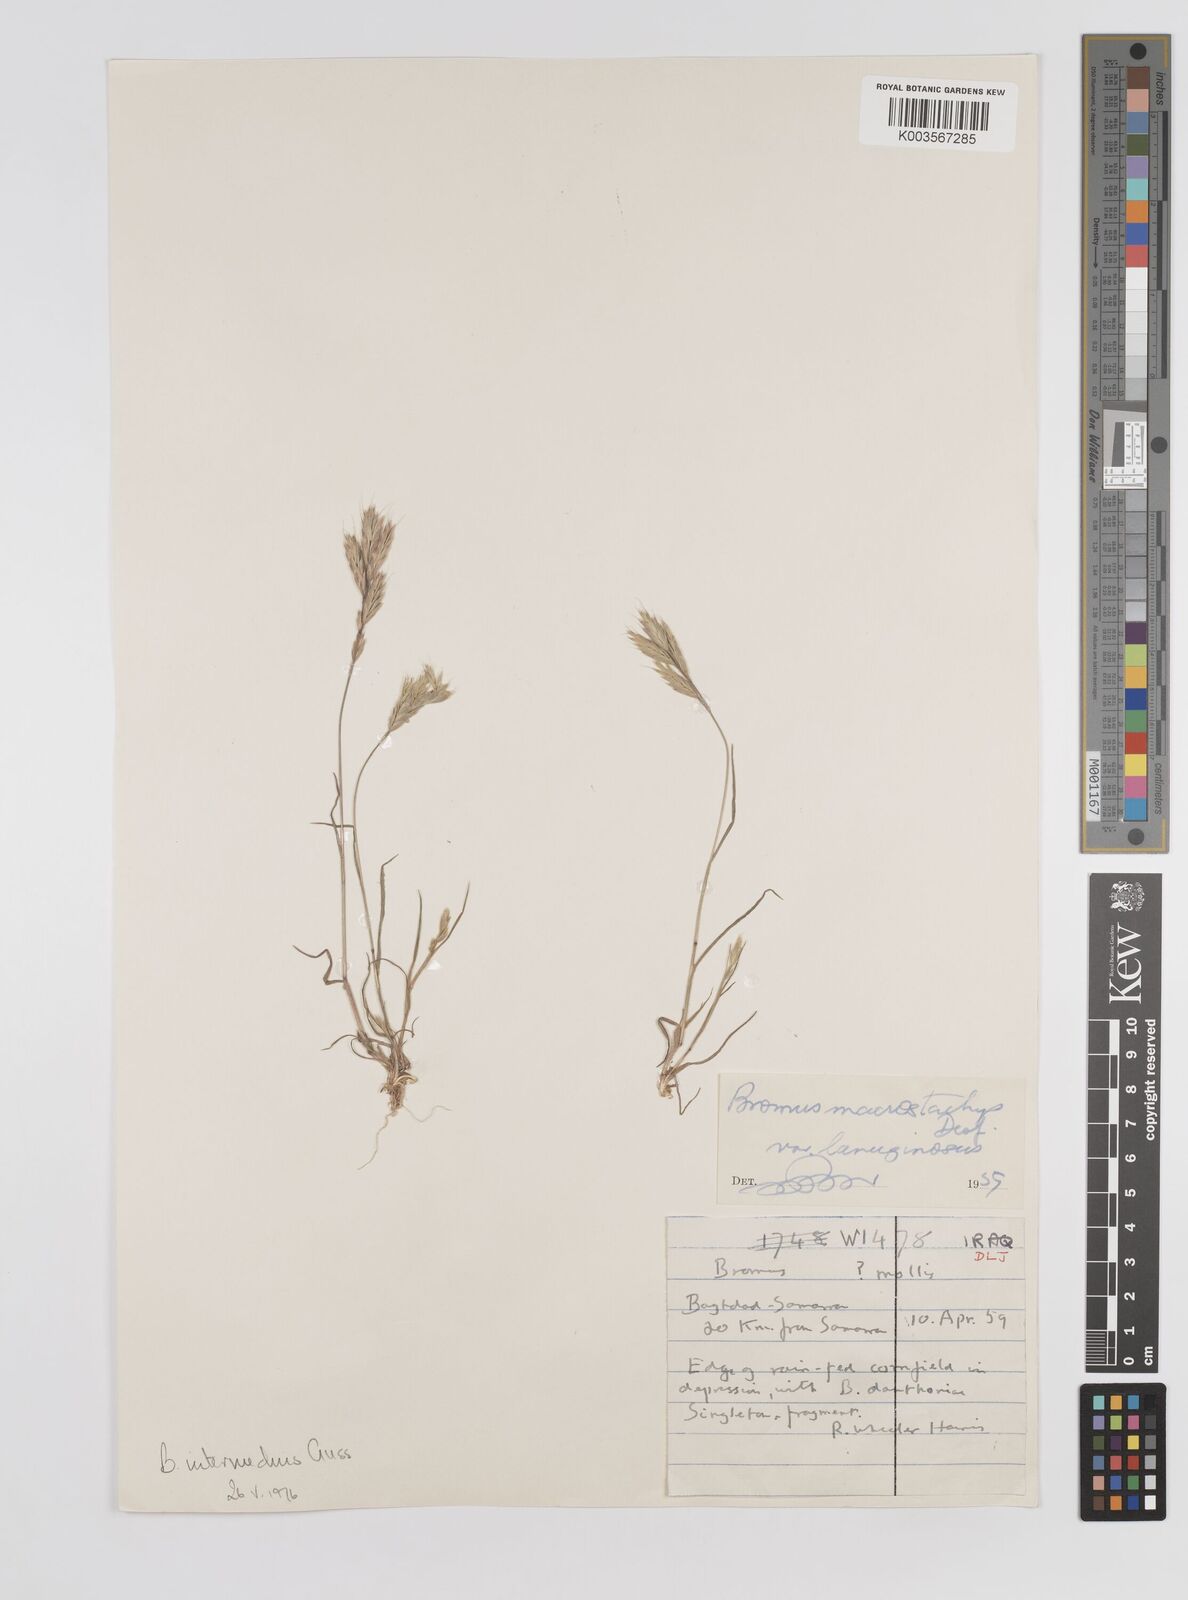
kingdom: Plantae
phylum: Tracheophyta
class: Liliopsida
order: Poales
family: Poaceae
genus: Bromus
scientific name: Bromus intermedius
